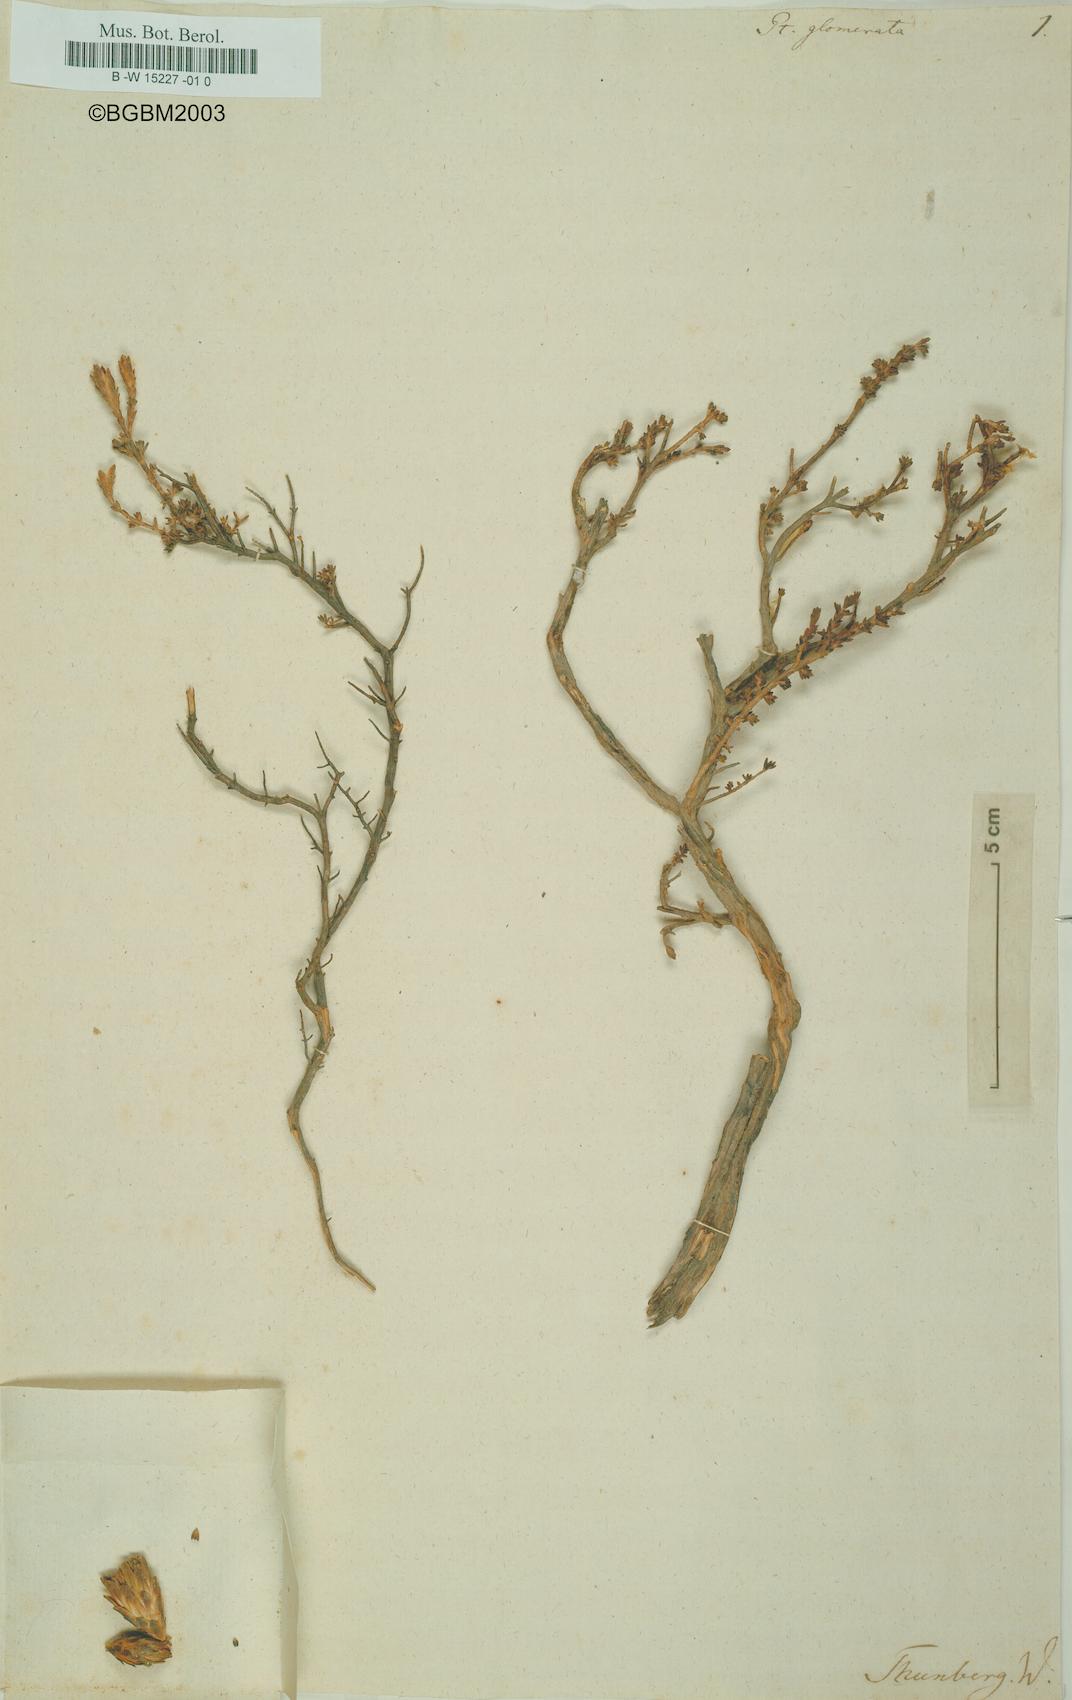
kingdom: Plantae
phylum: Tracheophyta
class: Magnoliopsida
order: Asterales
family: Asteraceae
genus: Pteronia
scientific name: Pteronia glomerata
